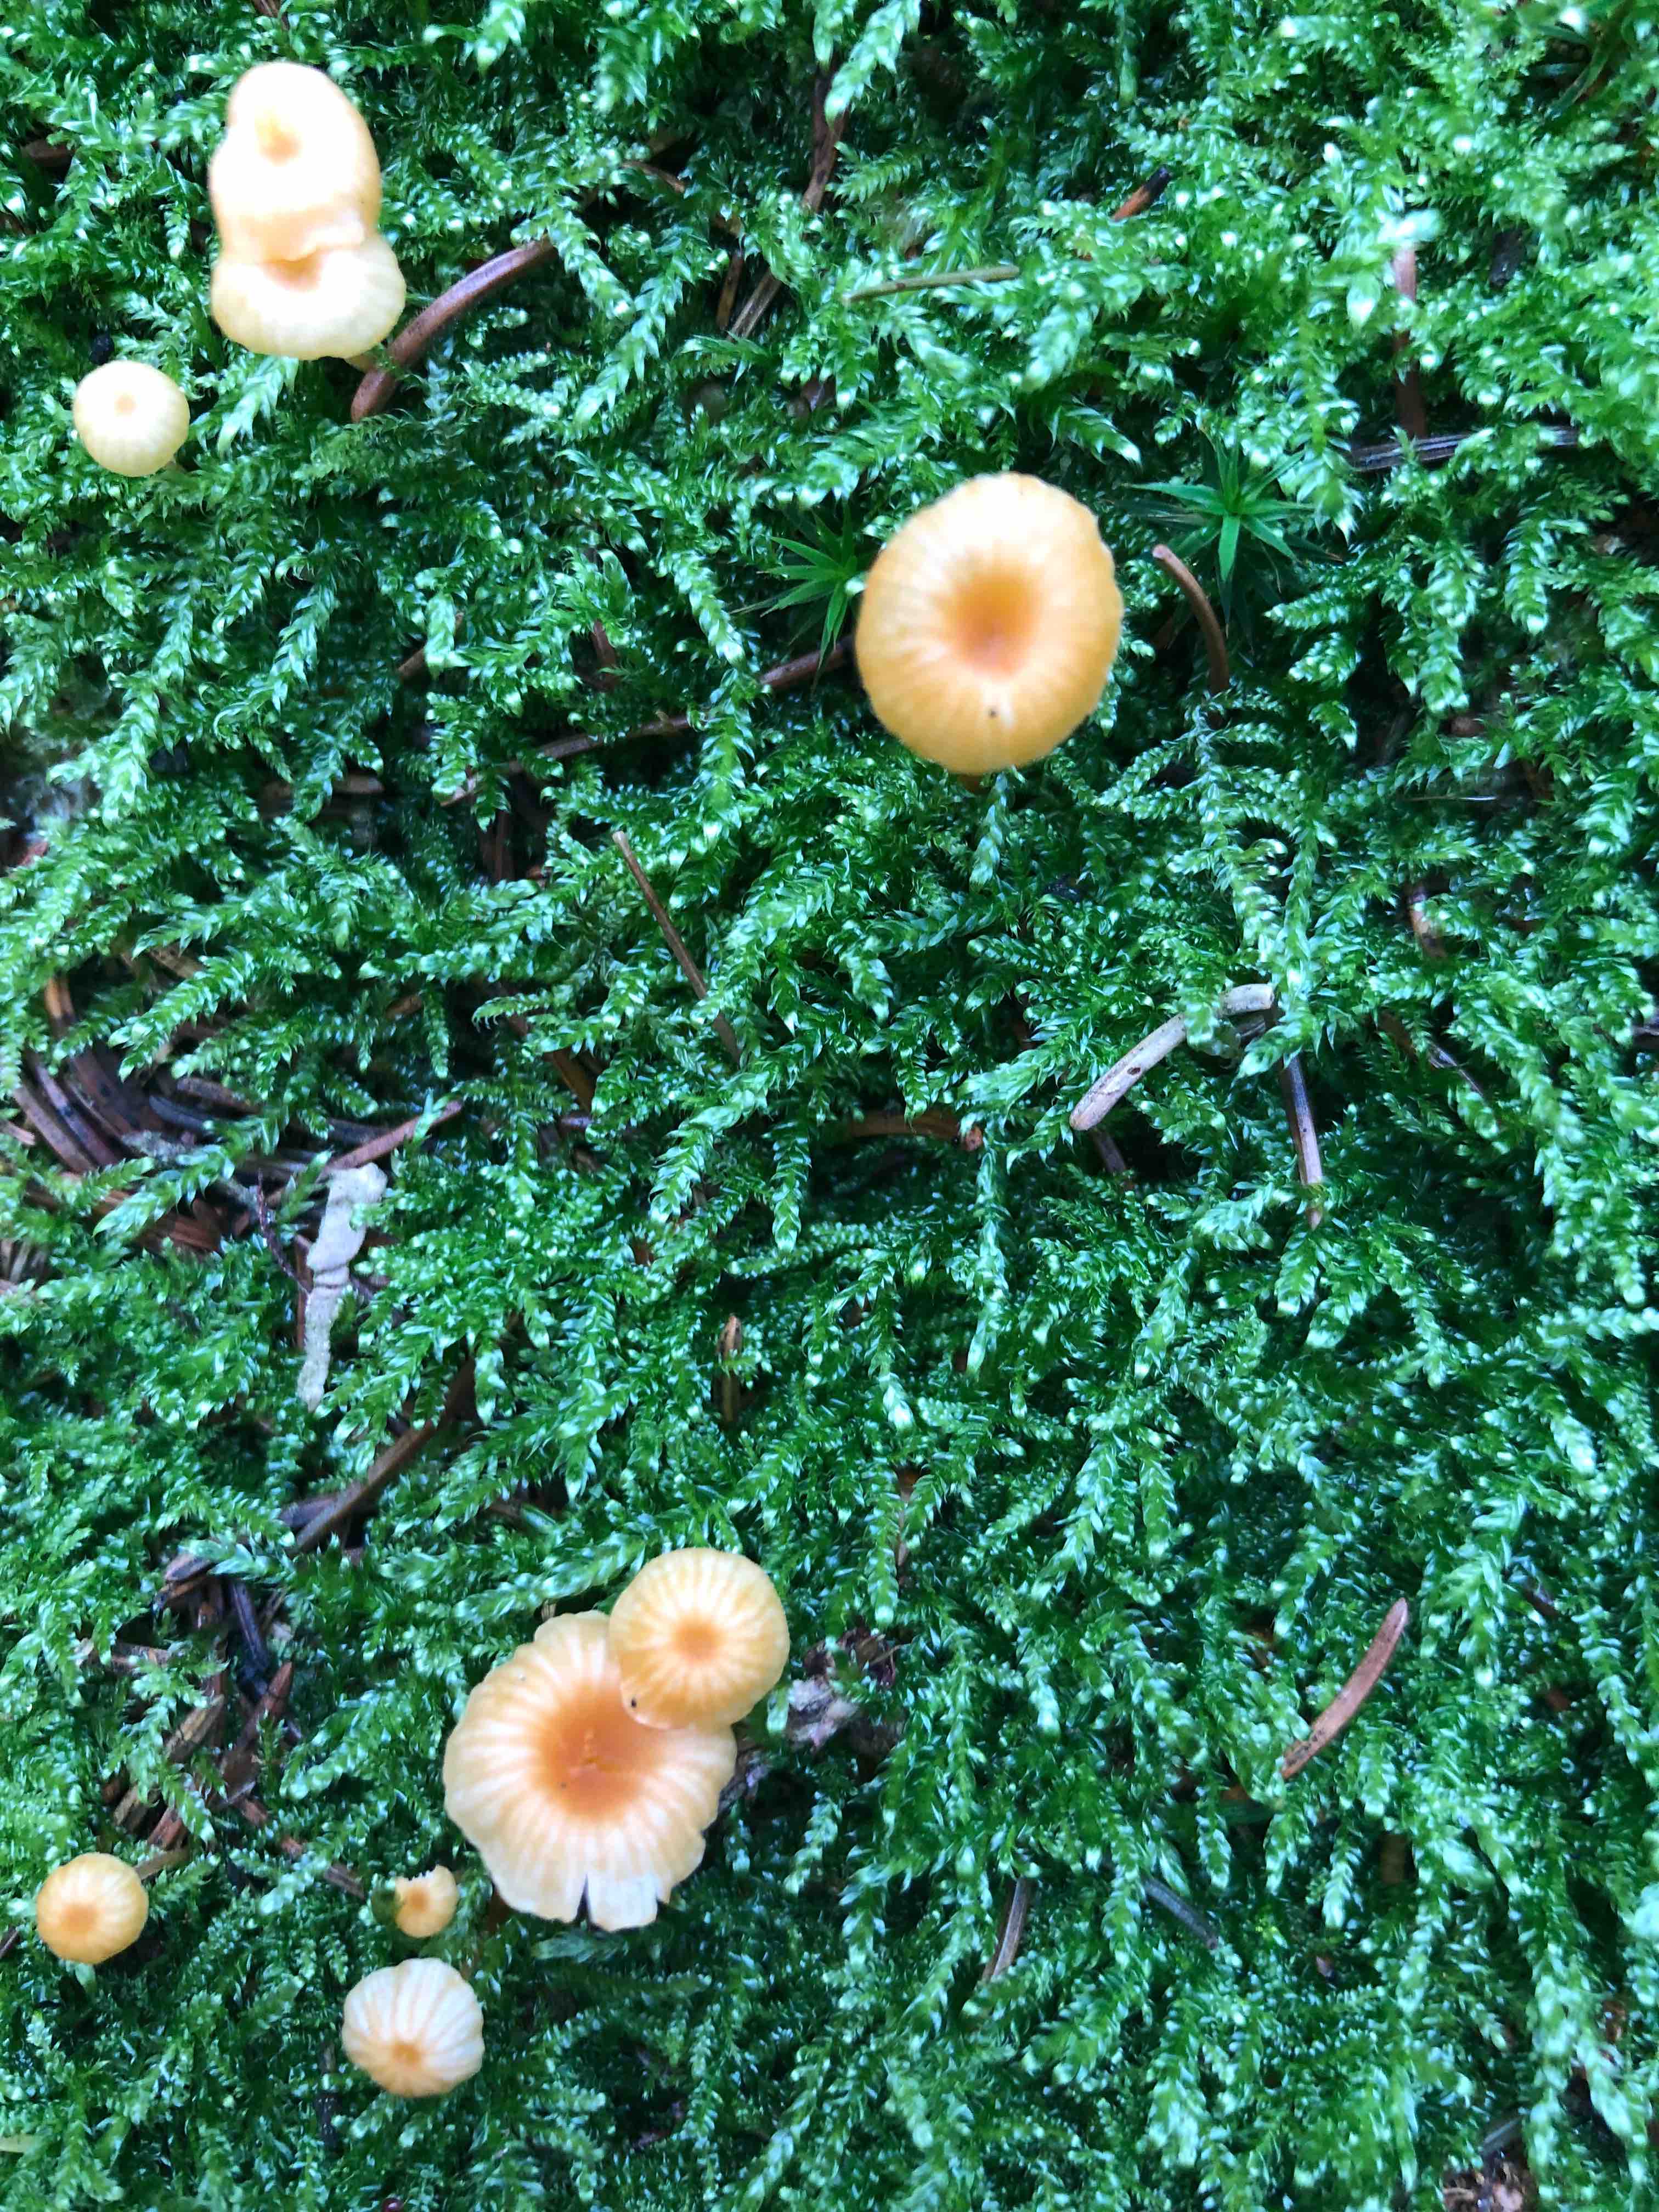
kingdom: Fungi
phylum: Basidiomycota
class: Agaricomycetes
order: Hymenochaetales
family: Rickenellaceae
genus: Rickenella
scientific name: Rickenella fibula
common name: orange mosnavlehat
